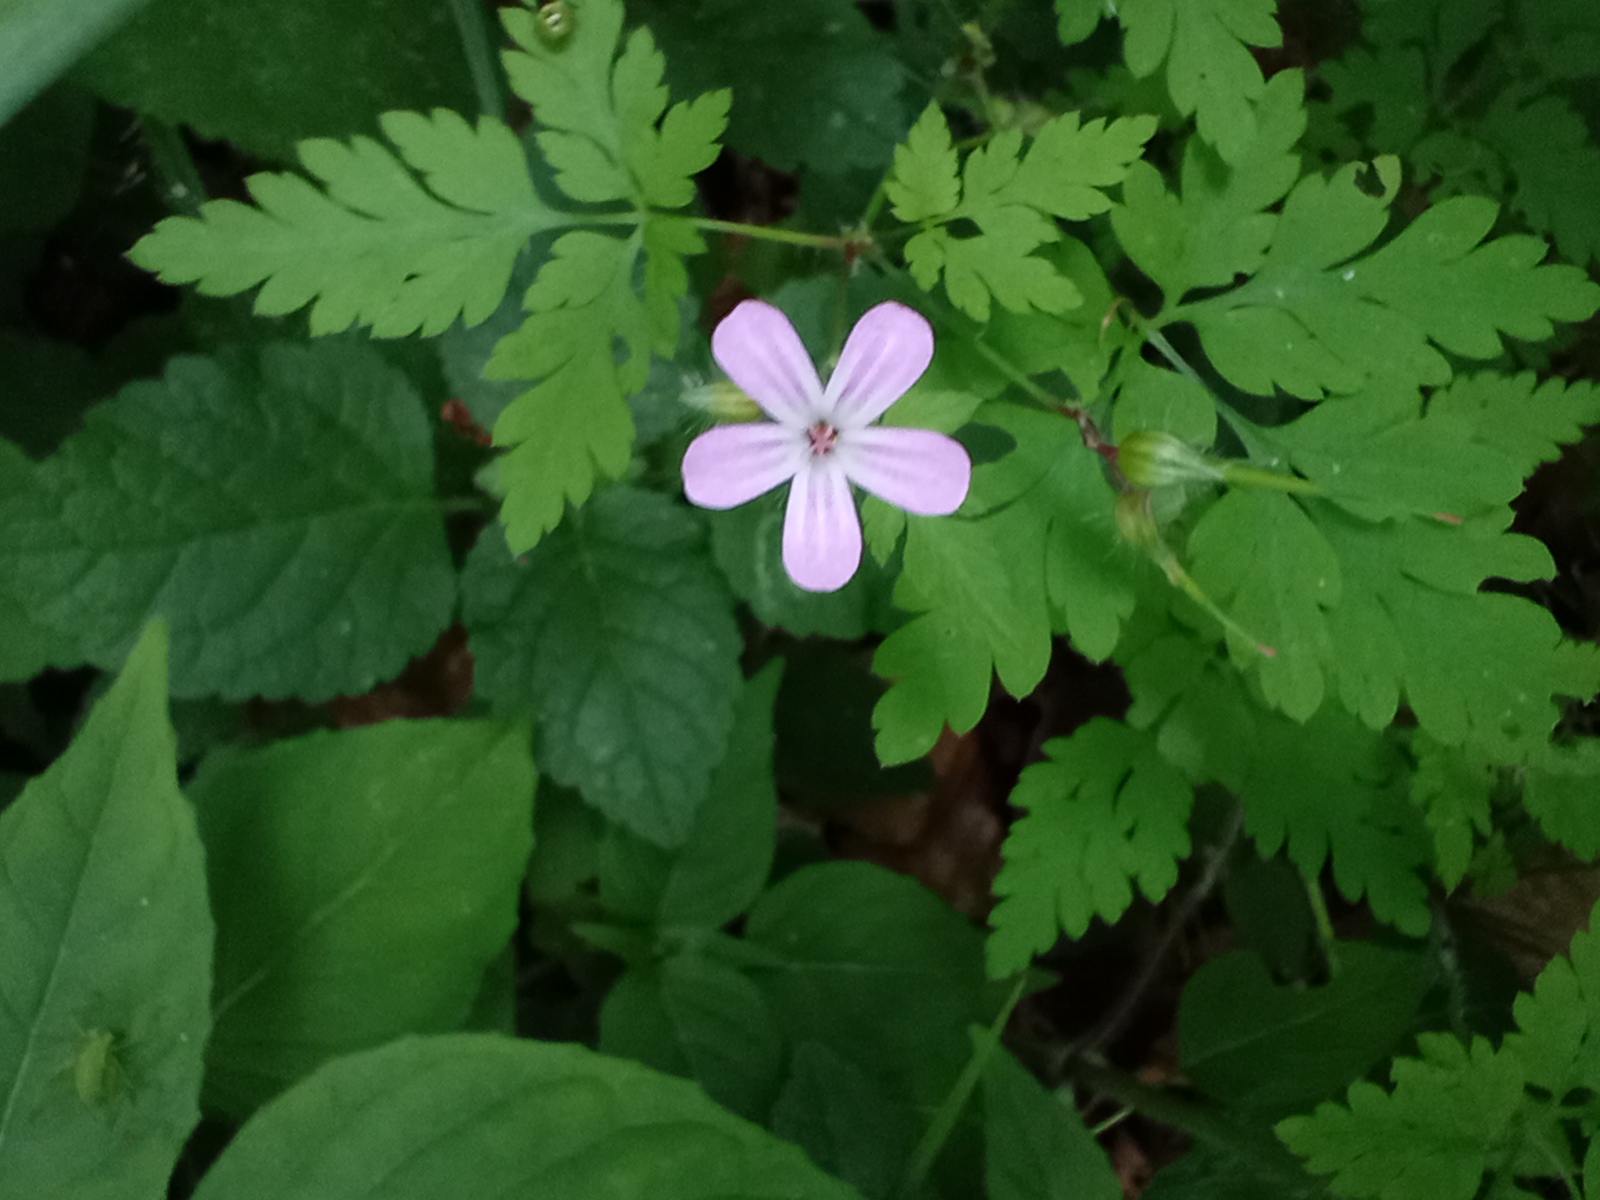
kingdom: Plantae
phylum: Tracheophyta
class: Magnoliopsida
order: Geraniales
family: Geraniaceae
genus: Geranium
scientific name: Geranium robertianum
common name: Stinkende storkenæb
